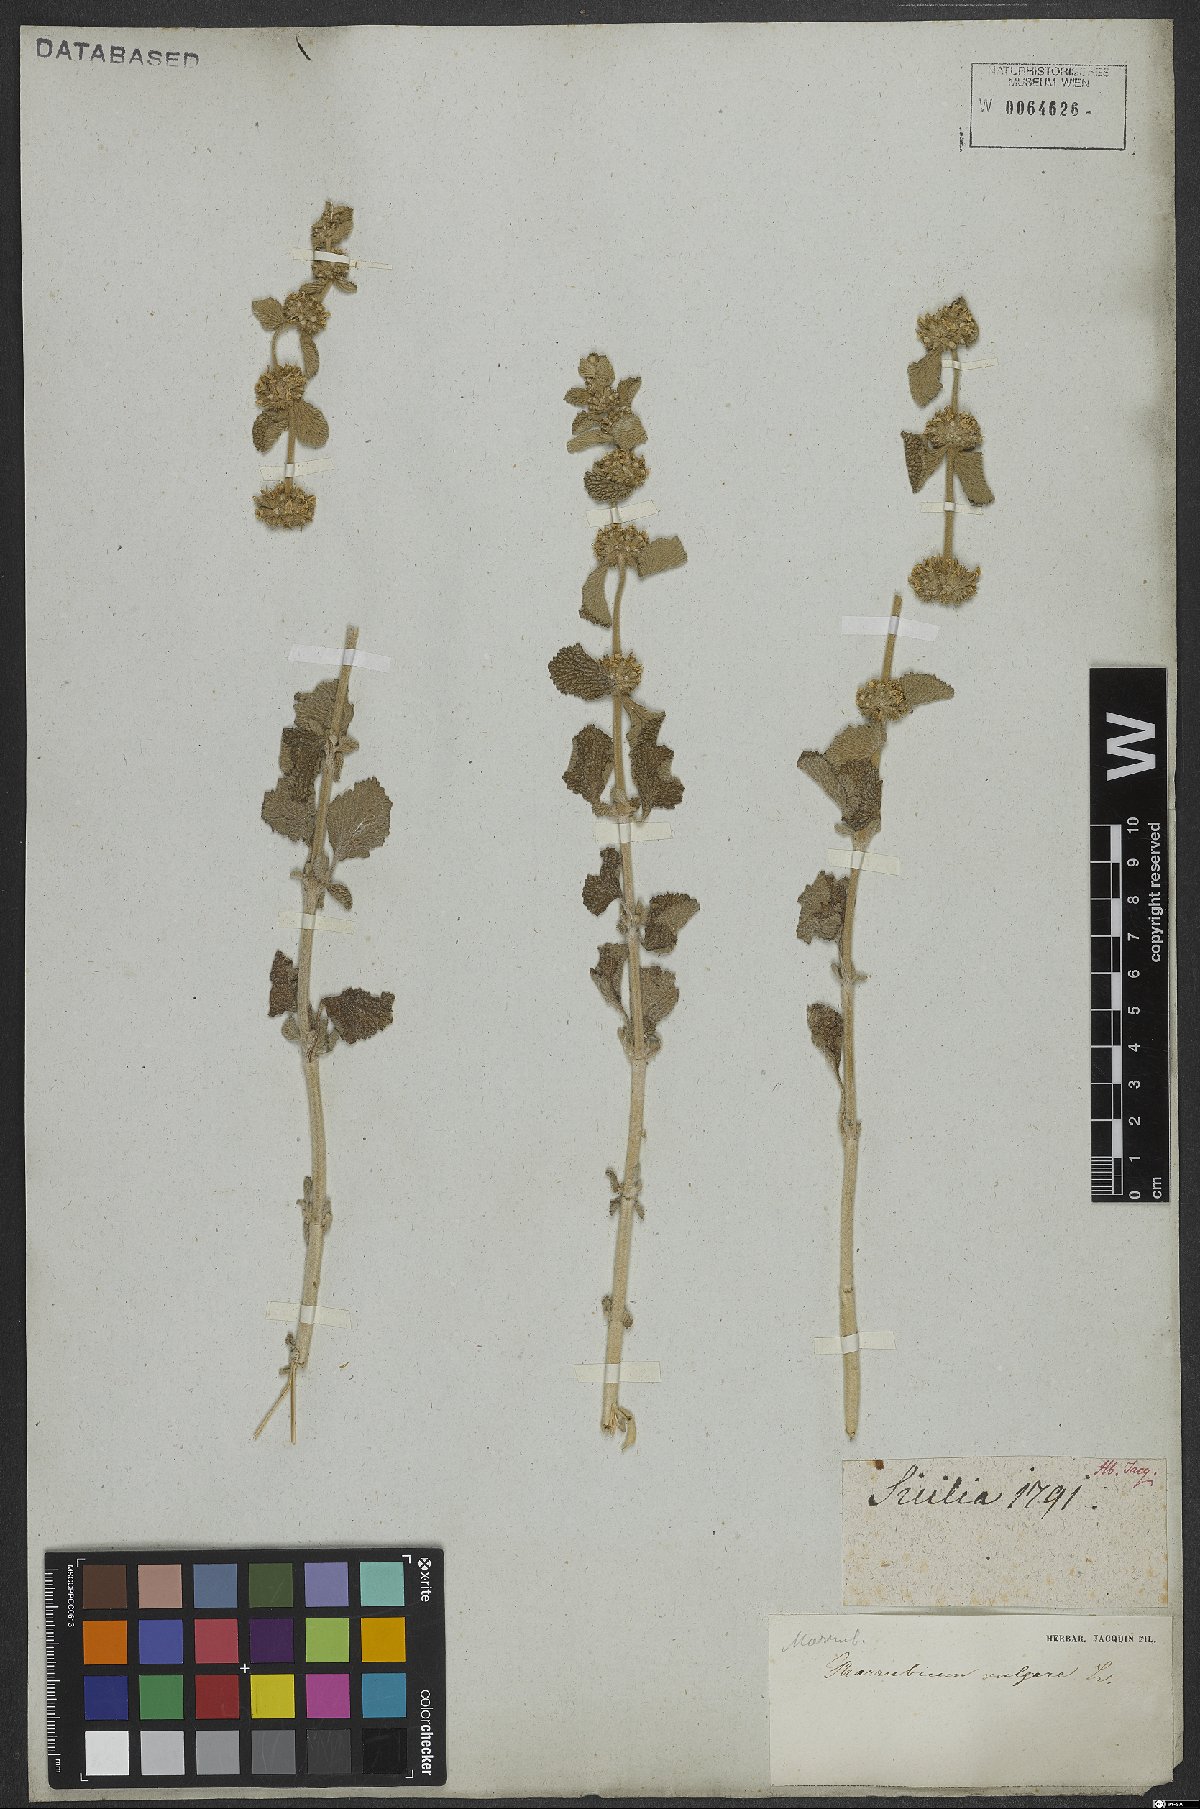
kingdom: Plantae
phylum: Tracheophyta
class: Magnoliopsida
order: Lamiales
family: Lamiaceae
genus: Marrubium
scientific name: Marrubium vulgare
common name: Horehound
